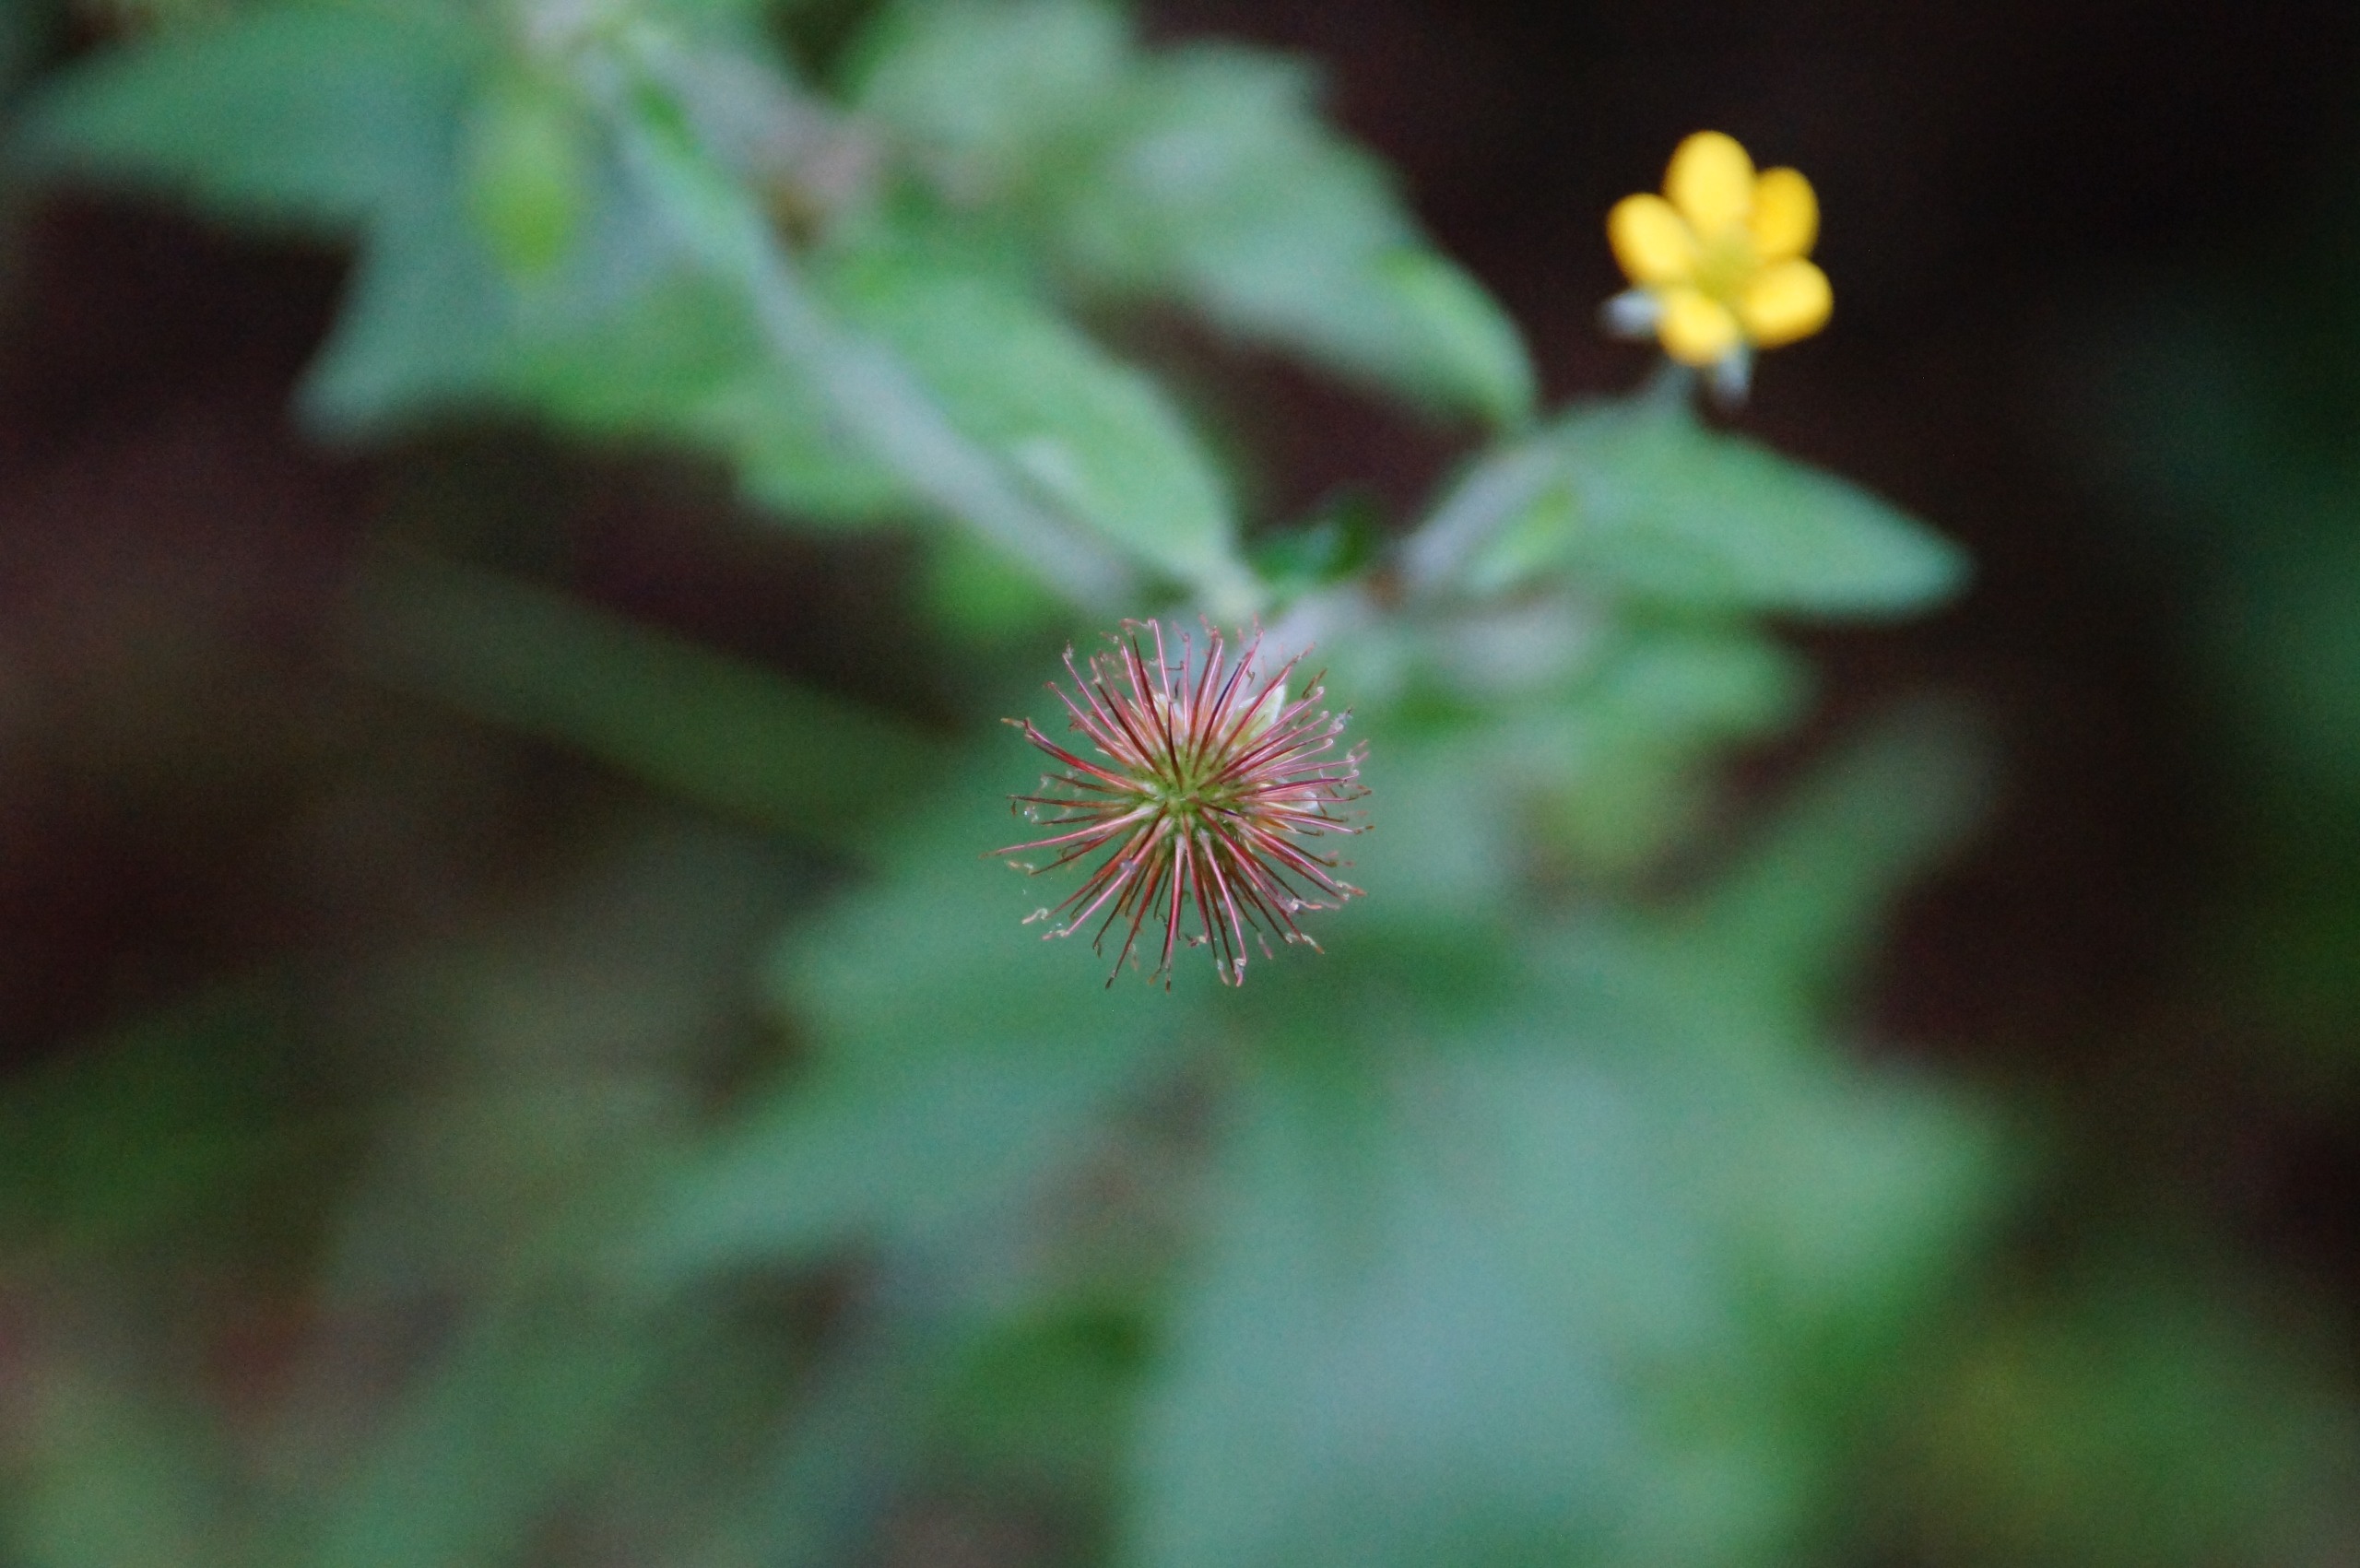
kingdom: Plantae
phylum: Tracheophyta
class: Magnoliopsida
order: Rosales
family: Rosaceae
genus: Geum
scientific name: Geum urbanum
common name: Feber-nellikerod
